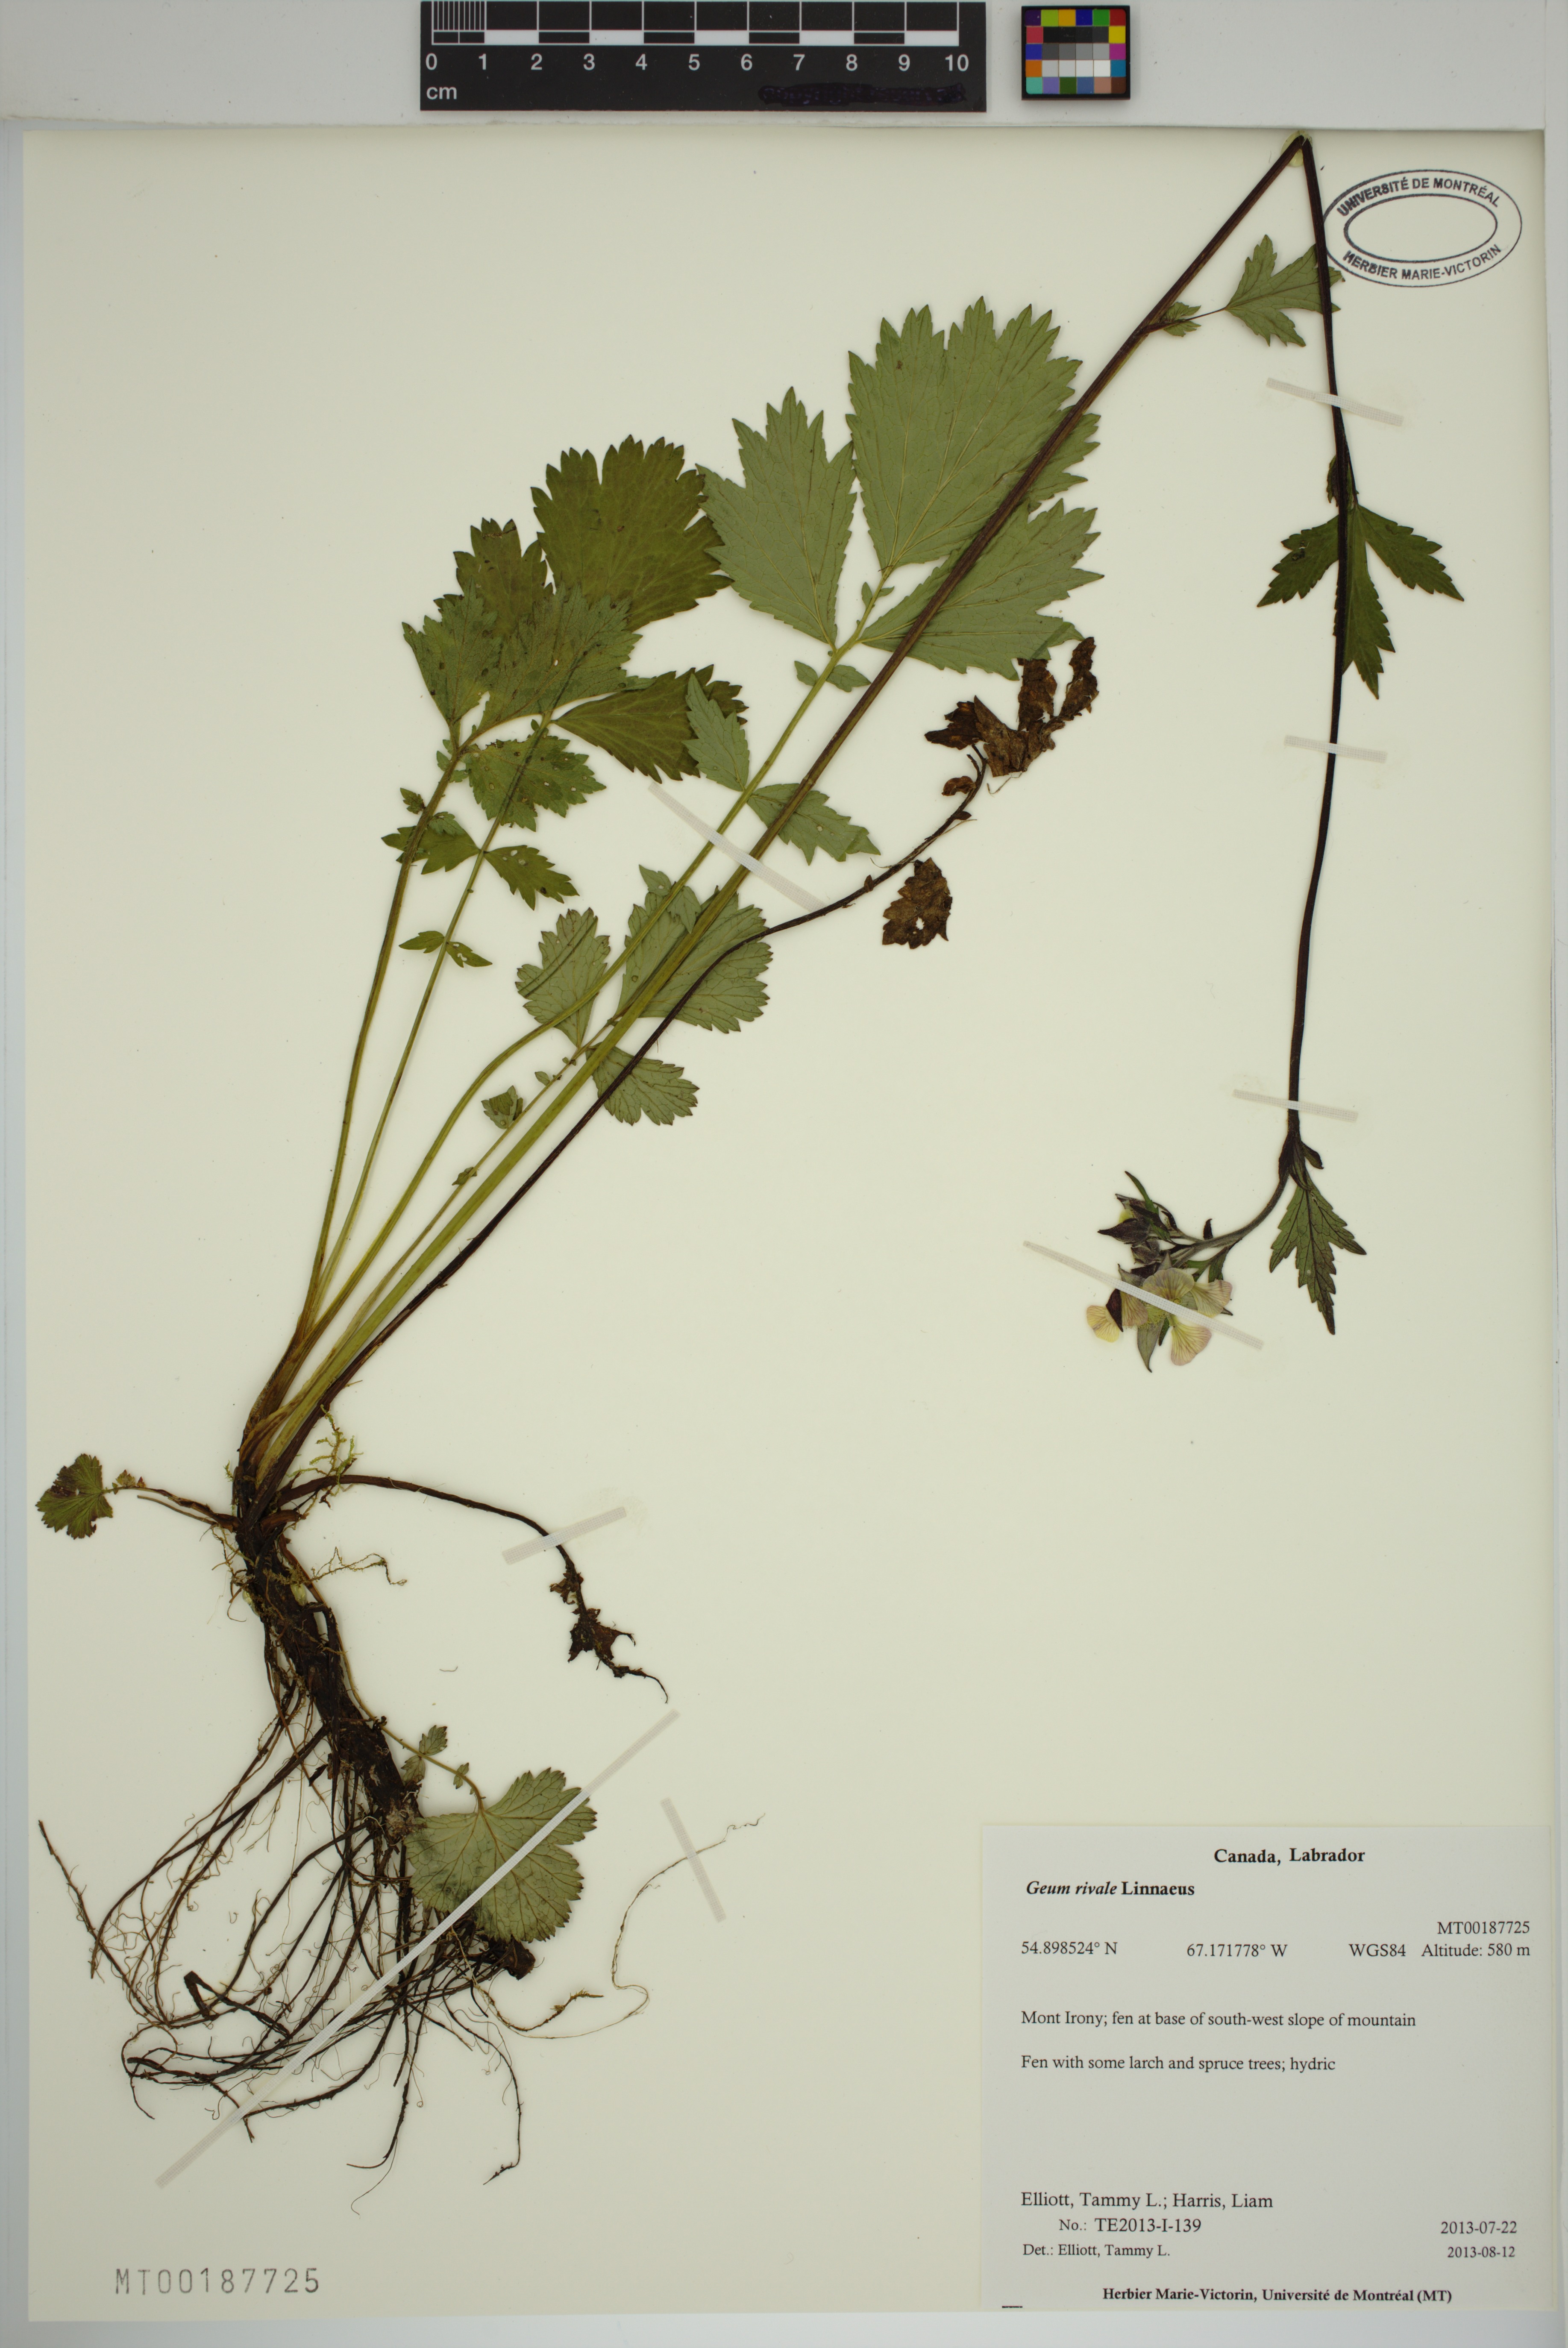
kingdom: Plantae
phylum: Tracheophyta
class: Magnoliopsida
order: Rosales
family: Rosaceae
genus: Geum
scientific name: Geum rivale
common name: Water avens
